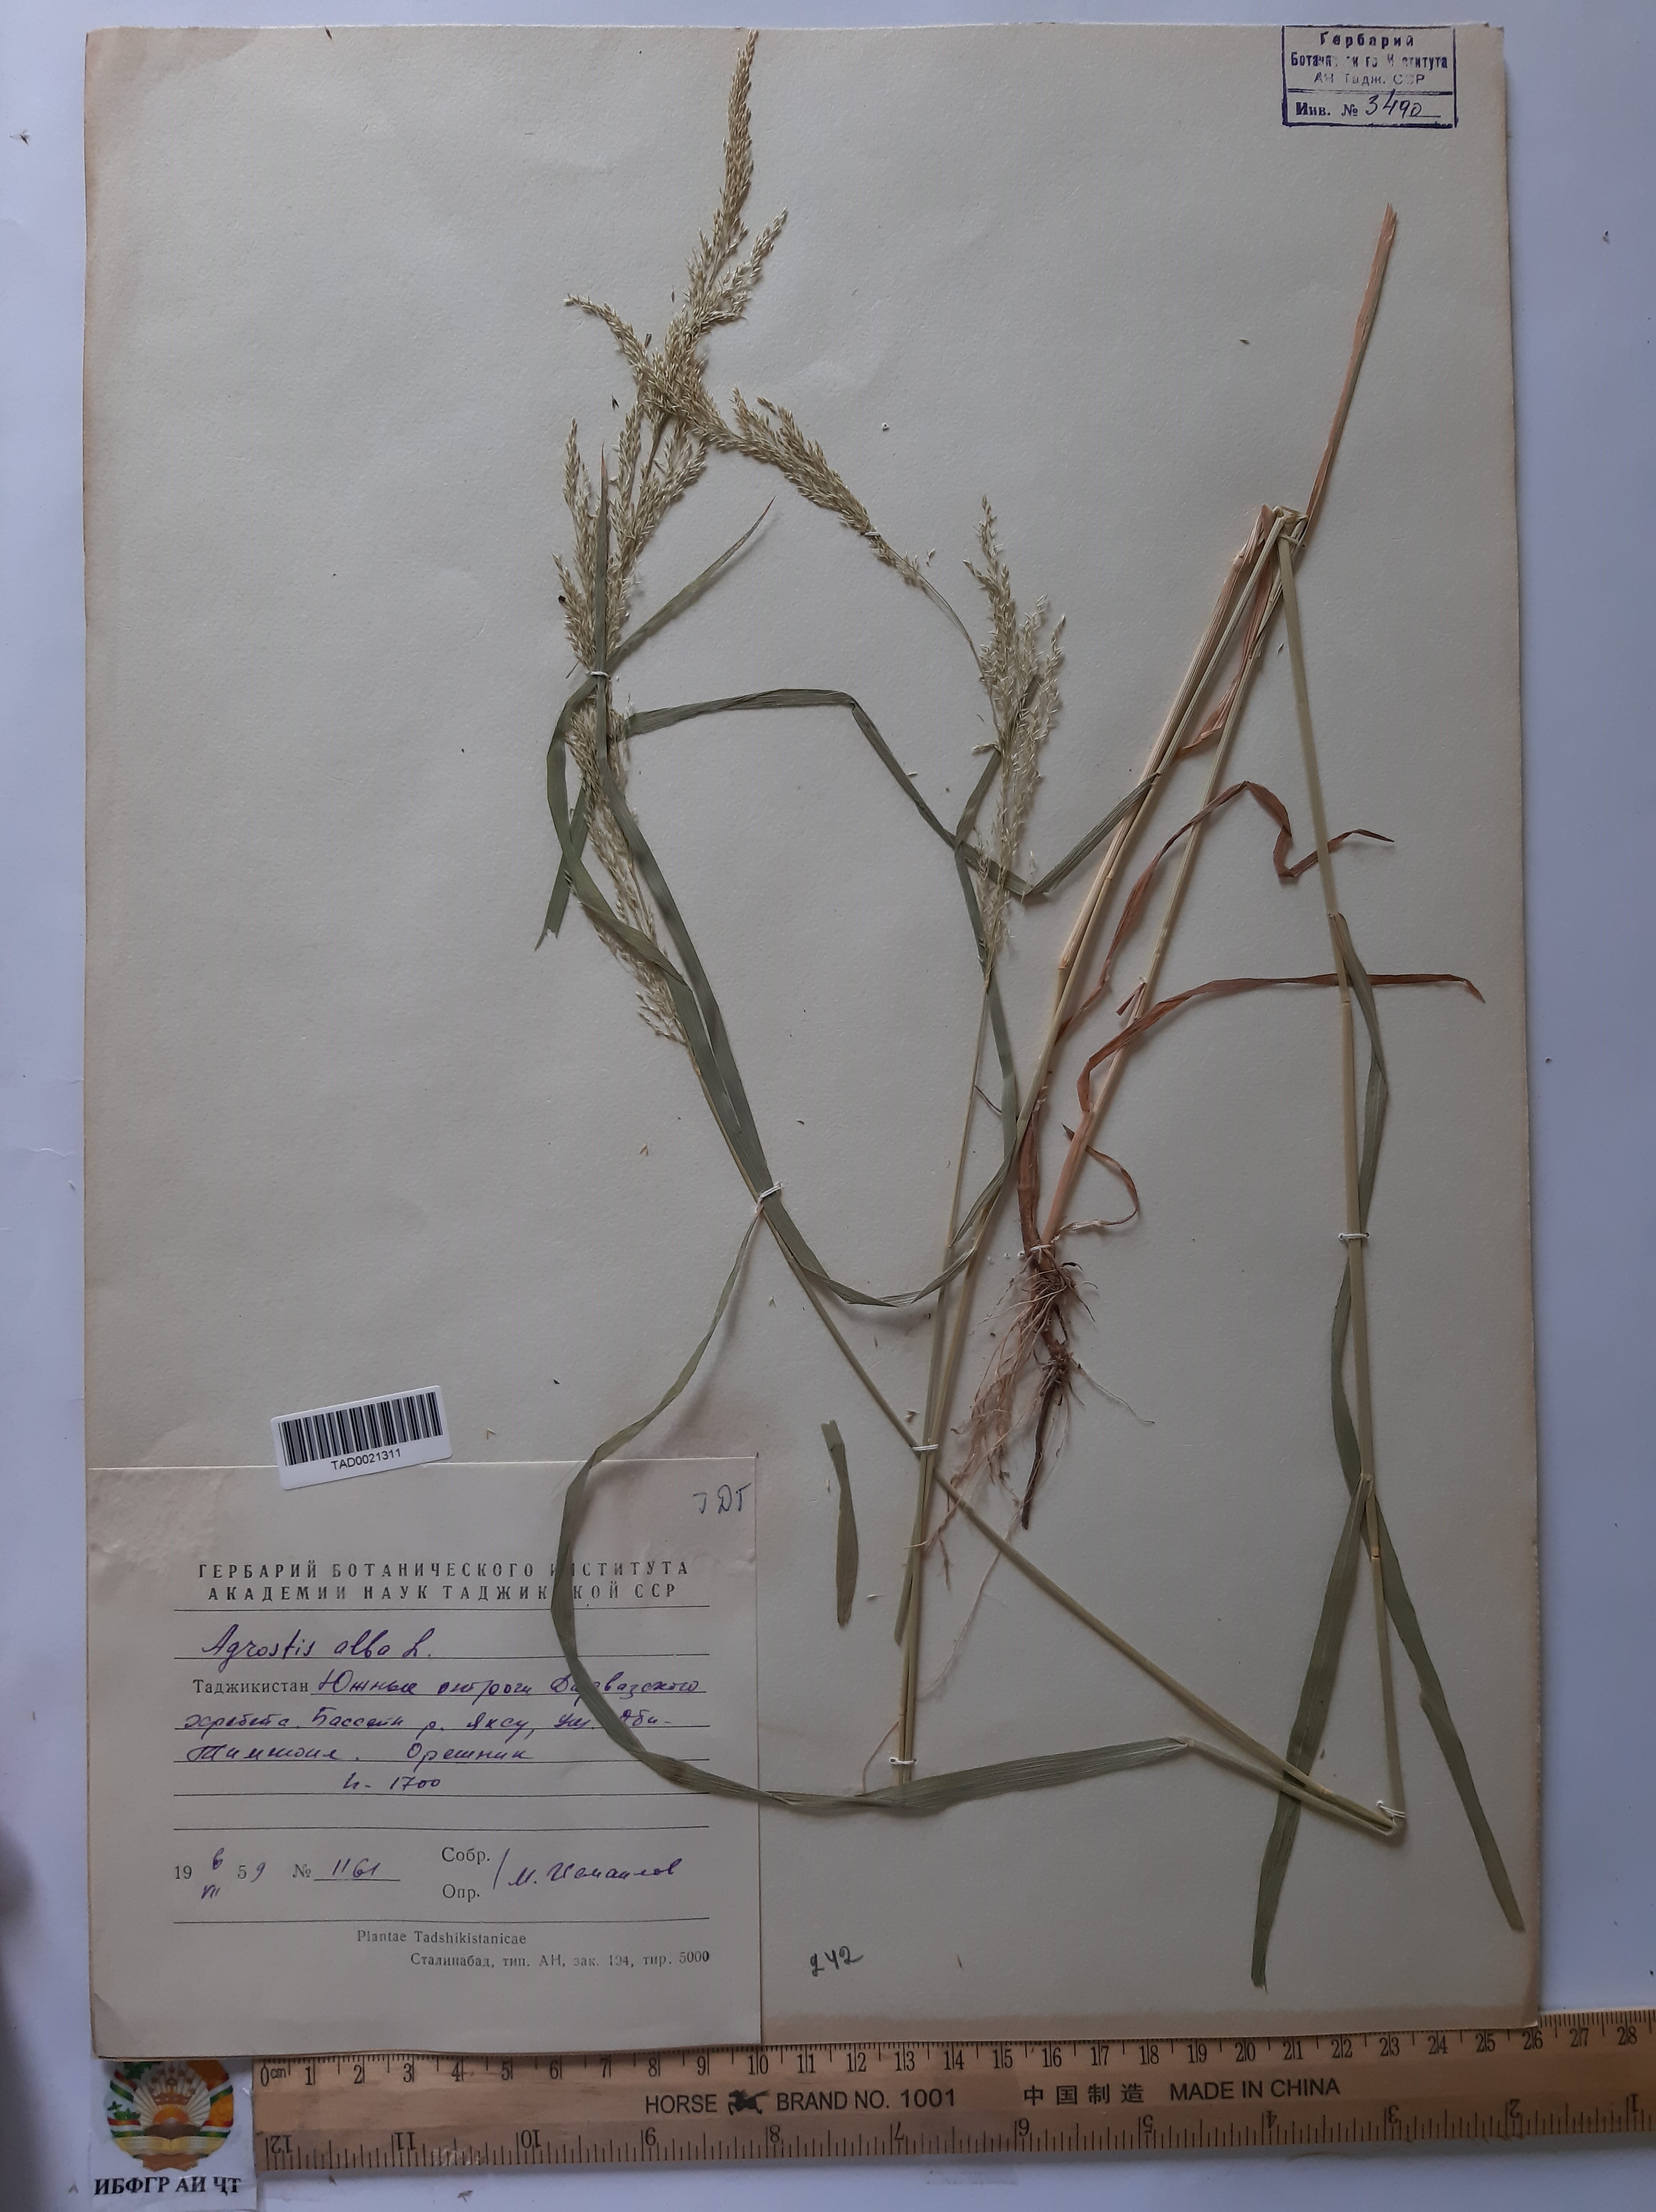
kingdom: Plantae
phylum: Tracheophyta
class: Liliopsida
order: Poales
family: Poaceae
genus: Poa
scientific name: Poa nemoralis
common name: Wood bluegrass
